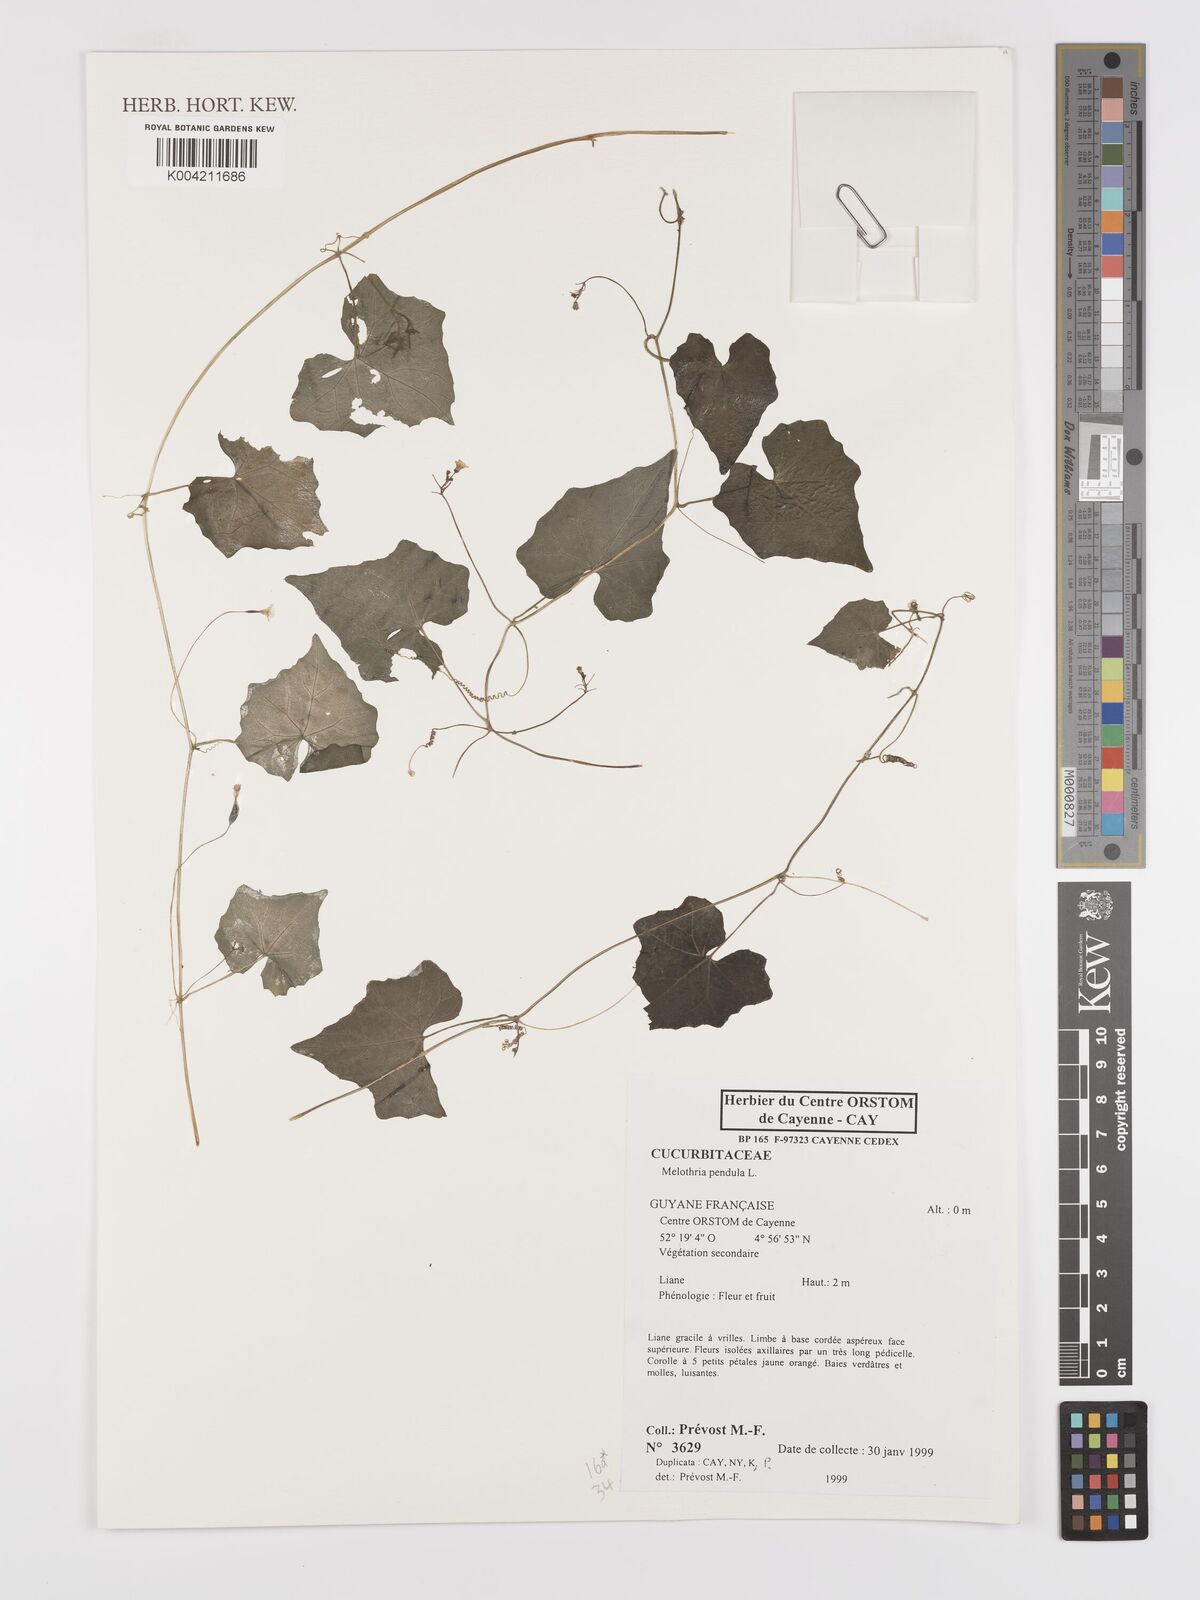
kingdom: Plantae
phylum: Tracheophyta
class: Magnoliopsida
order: Cucurbitales
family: Cucurbitaceae
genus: Melothria
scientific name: Melothria pendula
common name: Creeping-cucumber
